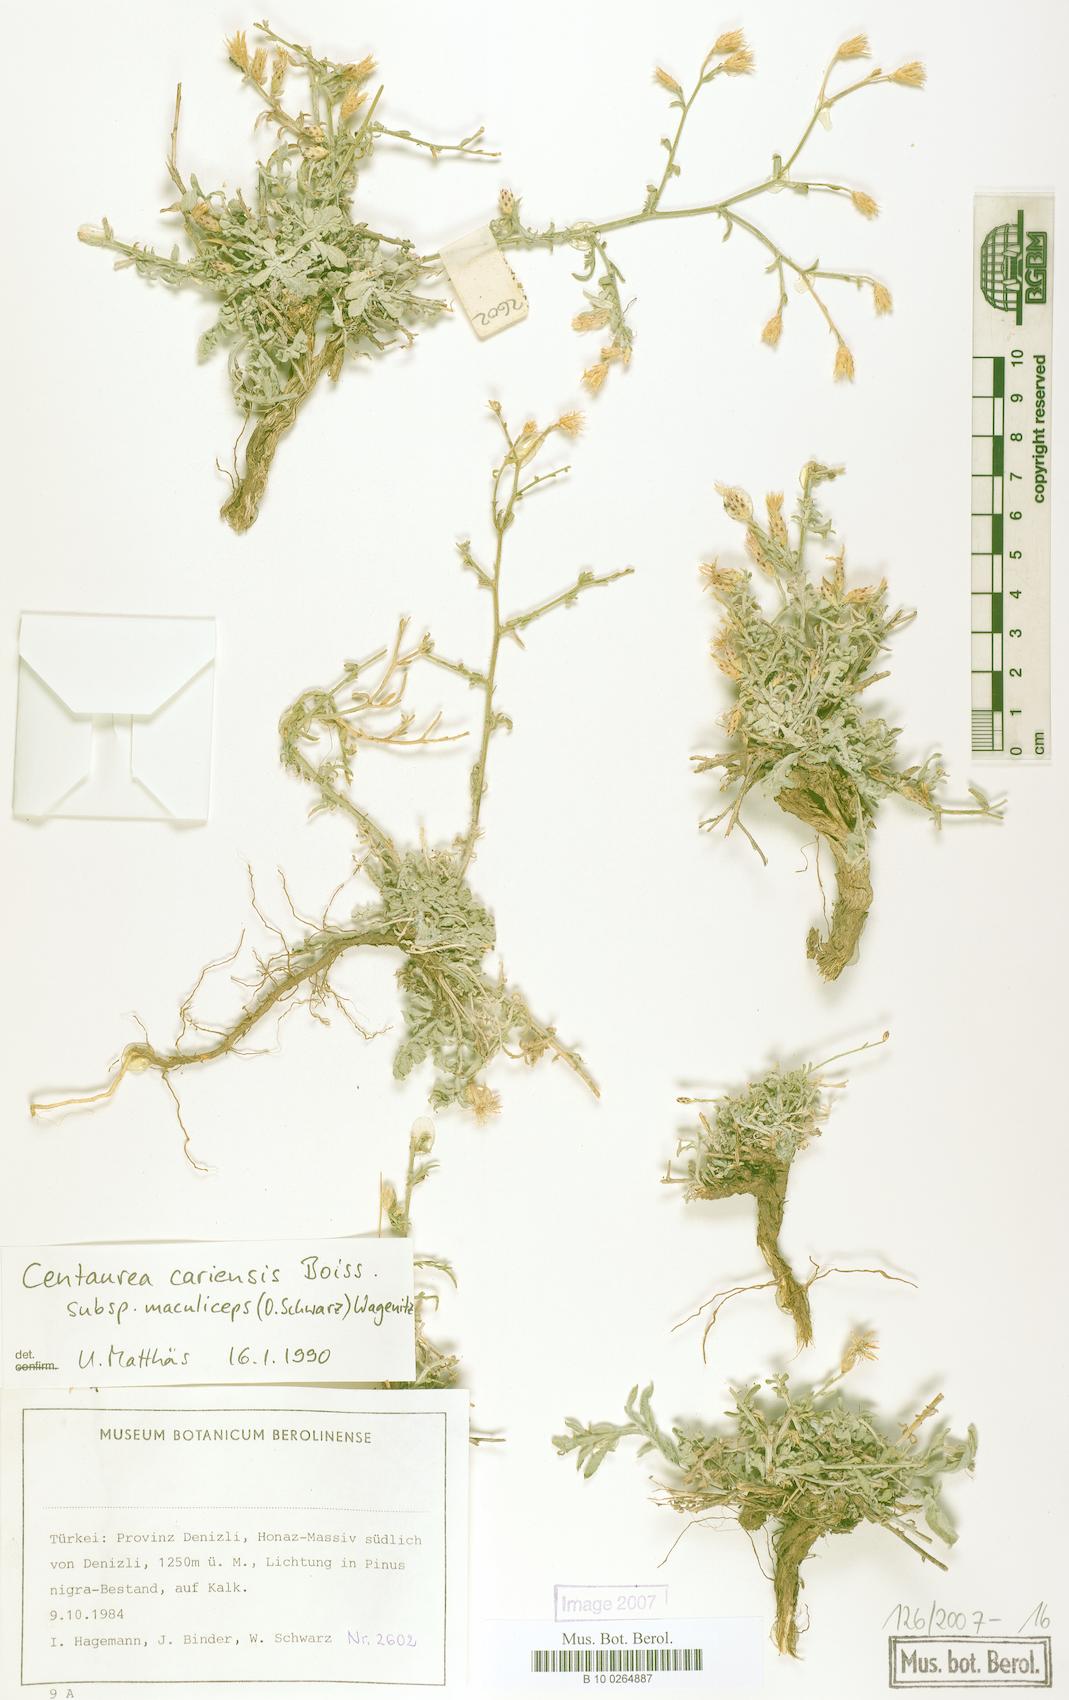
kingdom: Plantae
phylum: Tracheophyta
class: Magnoliopsida
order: Asterales
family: Asteraceae
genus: Centaurea
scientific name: Centaurea cariensis
